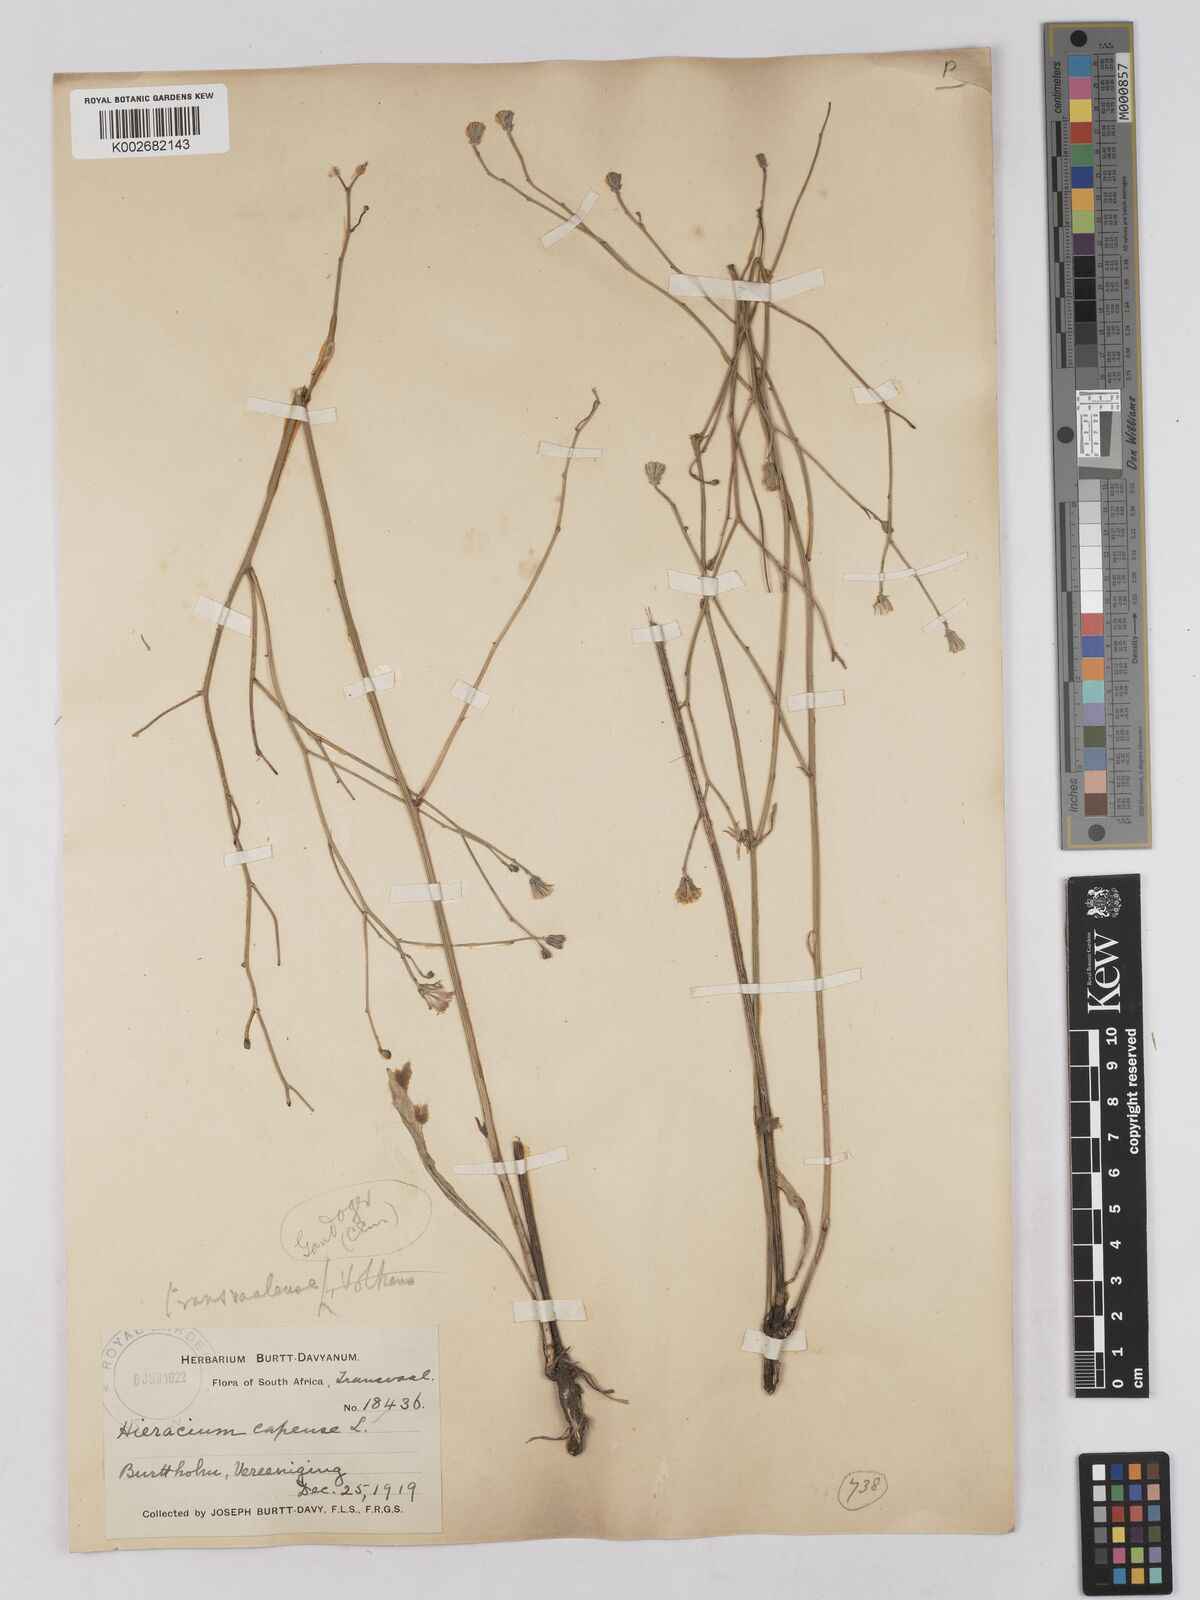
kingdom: Plantae
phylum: Tracheophyta
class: Magnoliopsida
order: Asterales
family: Asteraceae
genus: Tolpis
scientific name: Tolpis capensis
